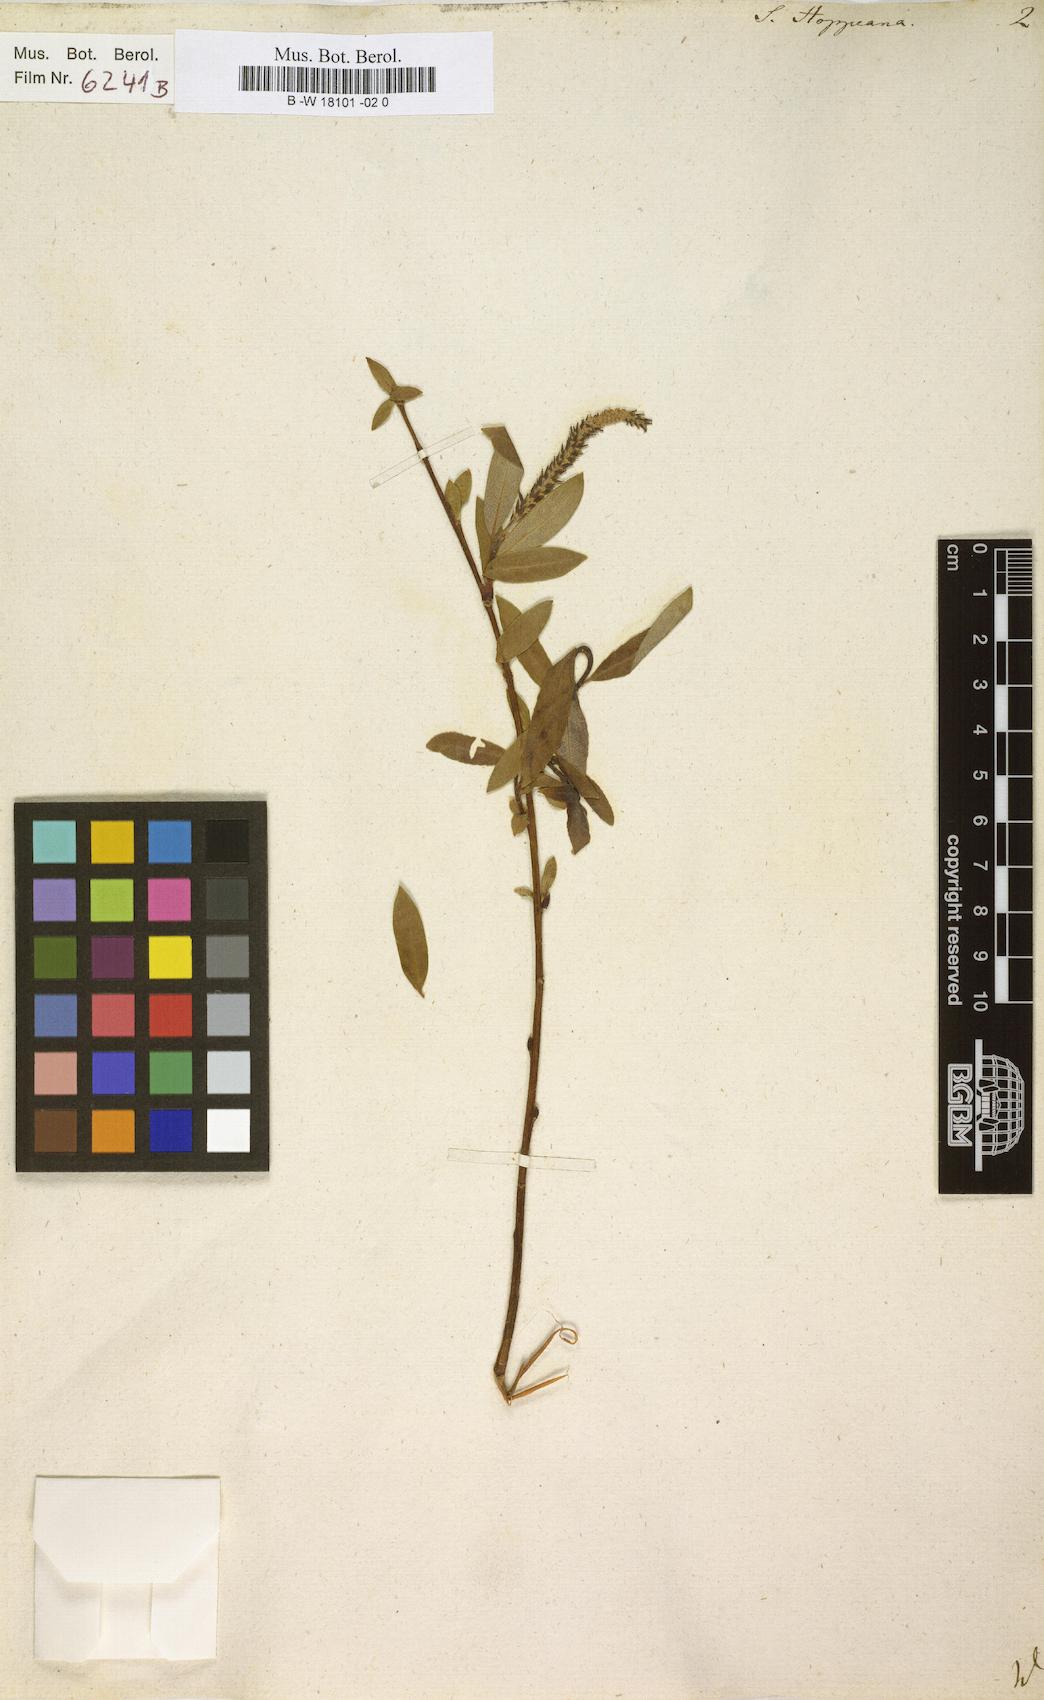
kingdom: Plantae
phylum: Tracheophyta
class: Magnoliopsida
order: Malpighiales
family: Salicaceae
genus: Salix
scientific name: Salix triandra
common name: Almond willow
